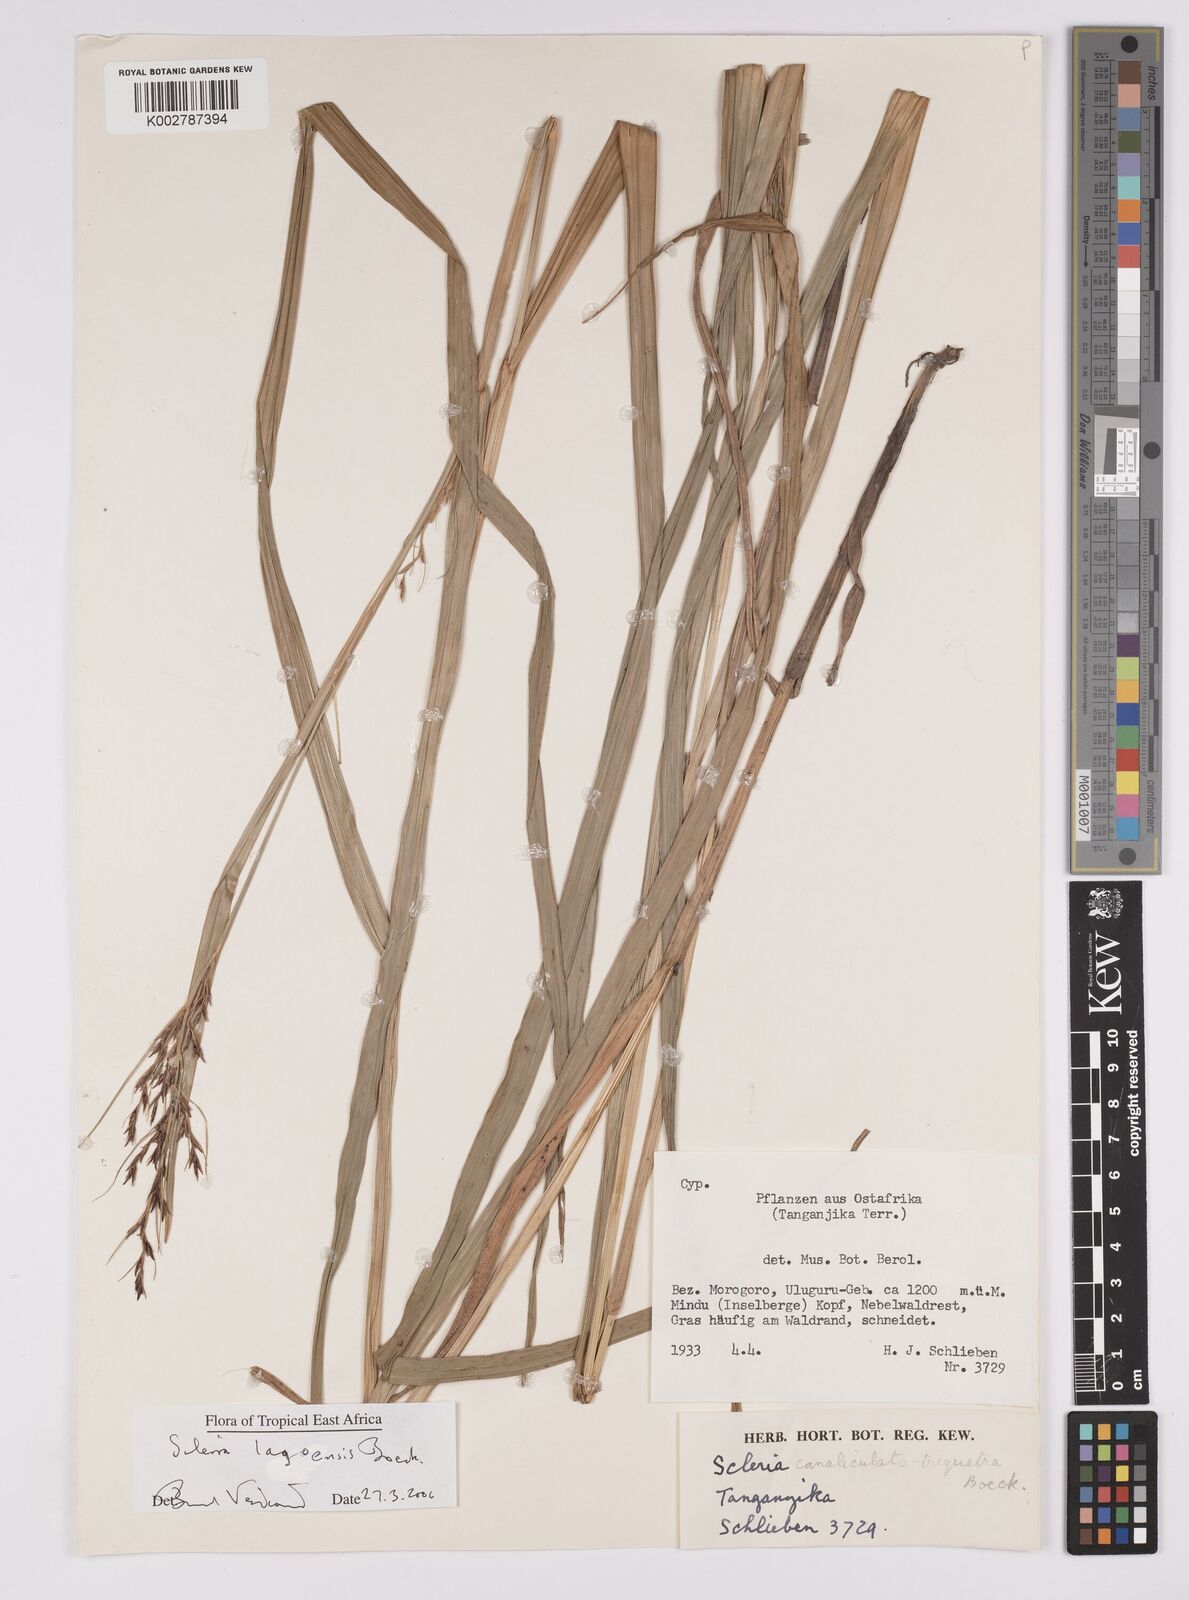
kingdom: Plantae
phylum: Tracheophyta
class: Liliopsida
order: Poales
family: Cyperaceae
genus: Scleria
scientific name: Scleria lagoensis
